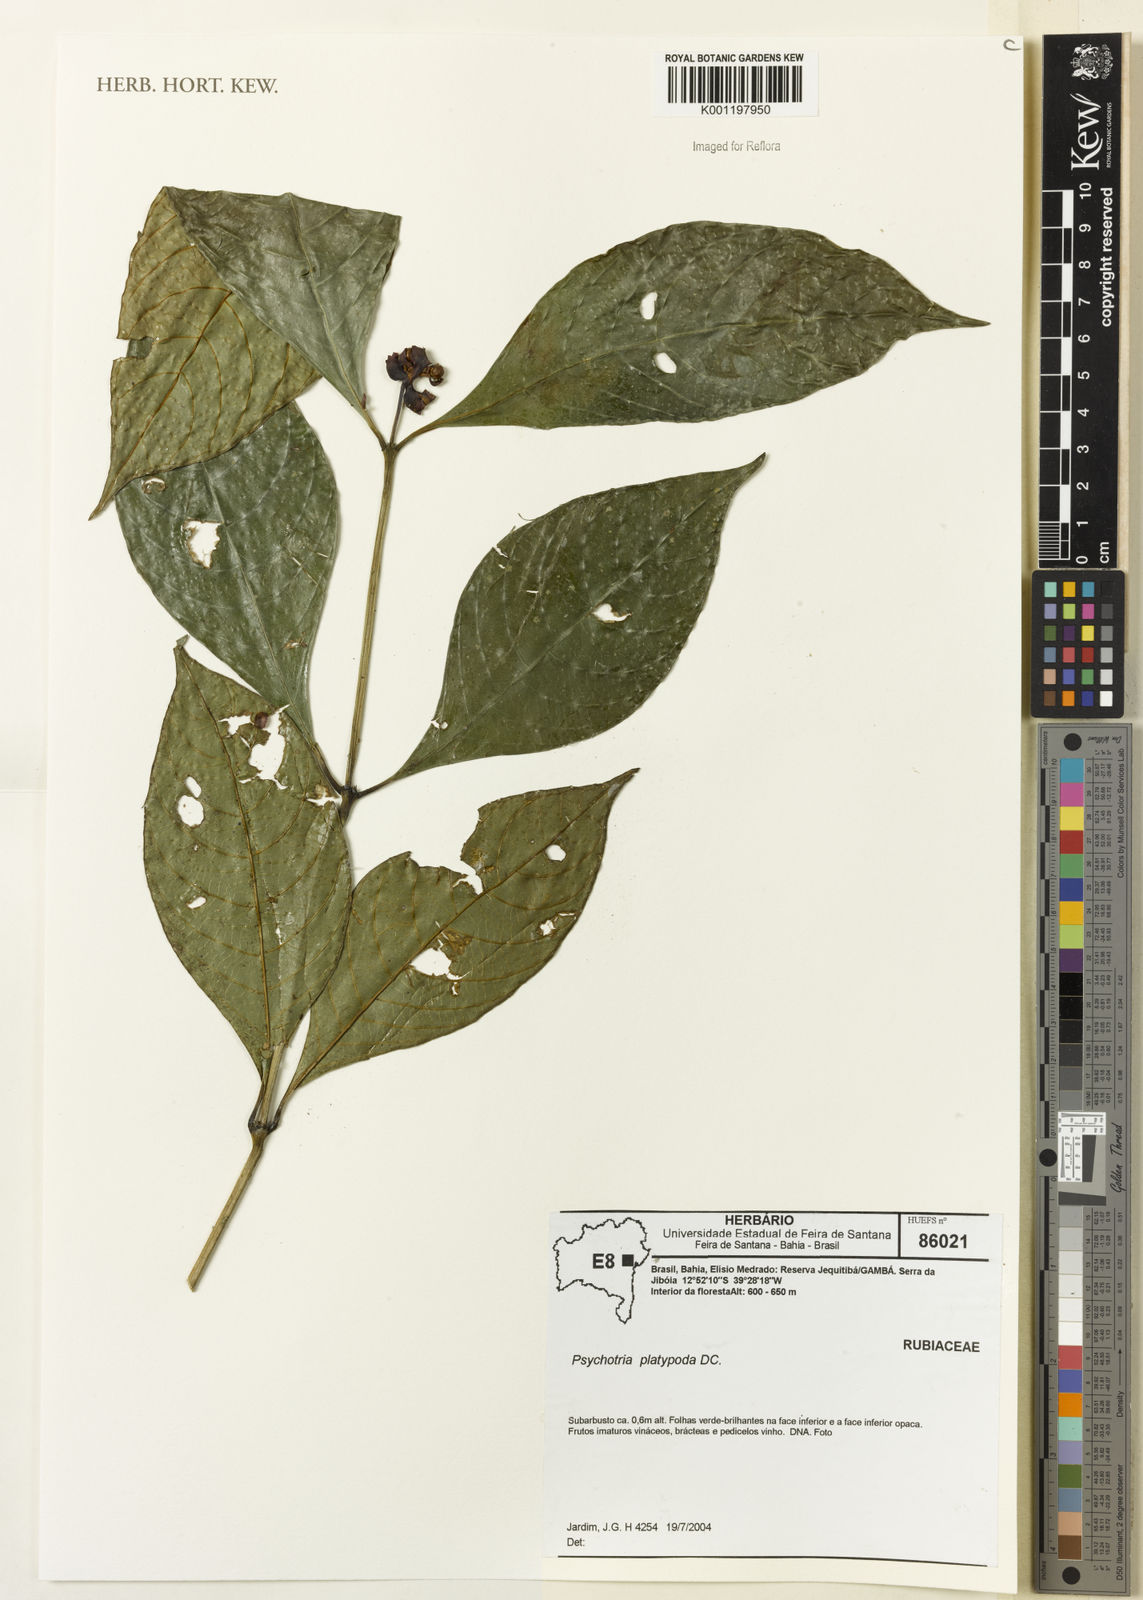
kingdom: Plantae
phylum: Tracheophyta
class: Magnoliopsida
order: Gentianales
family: Rubiaceae
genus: Palicourea
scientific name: Palicourea dichotoma
